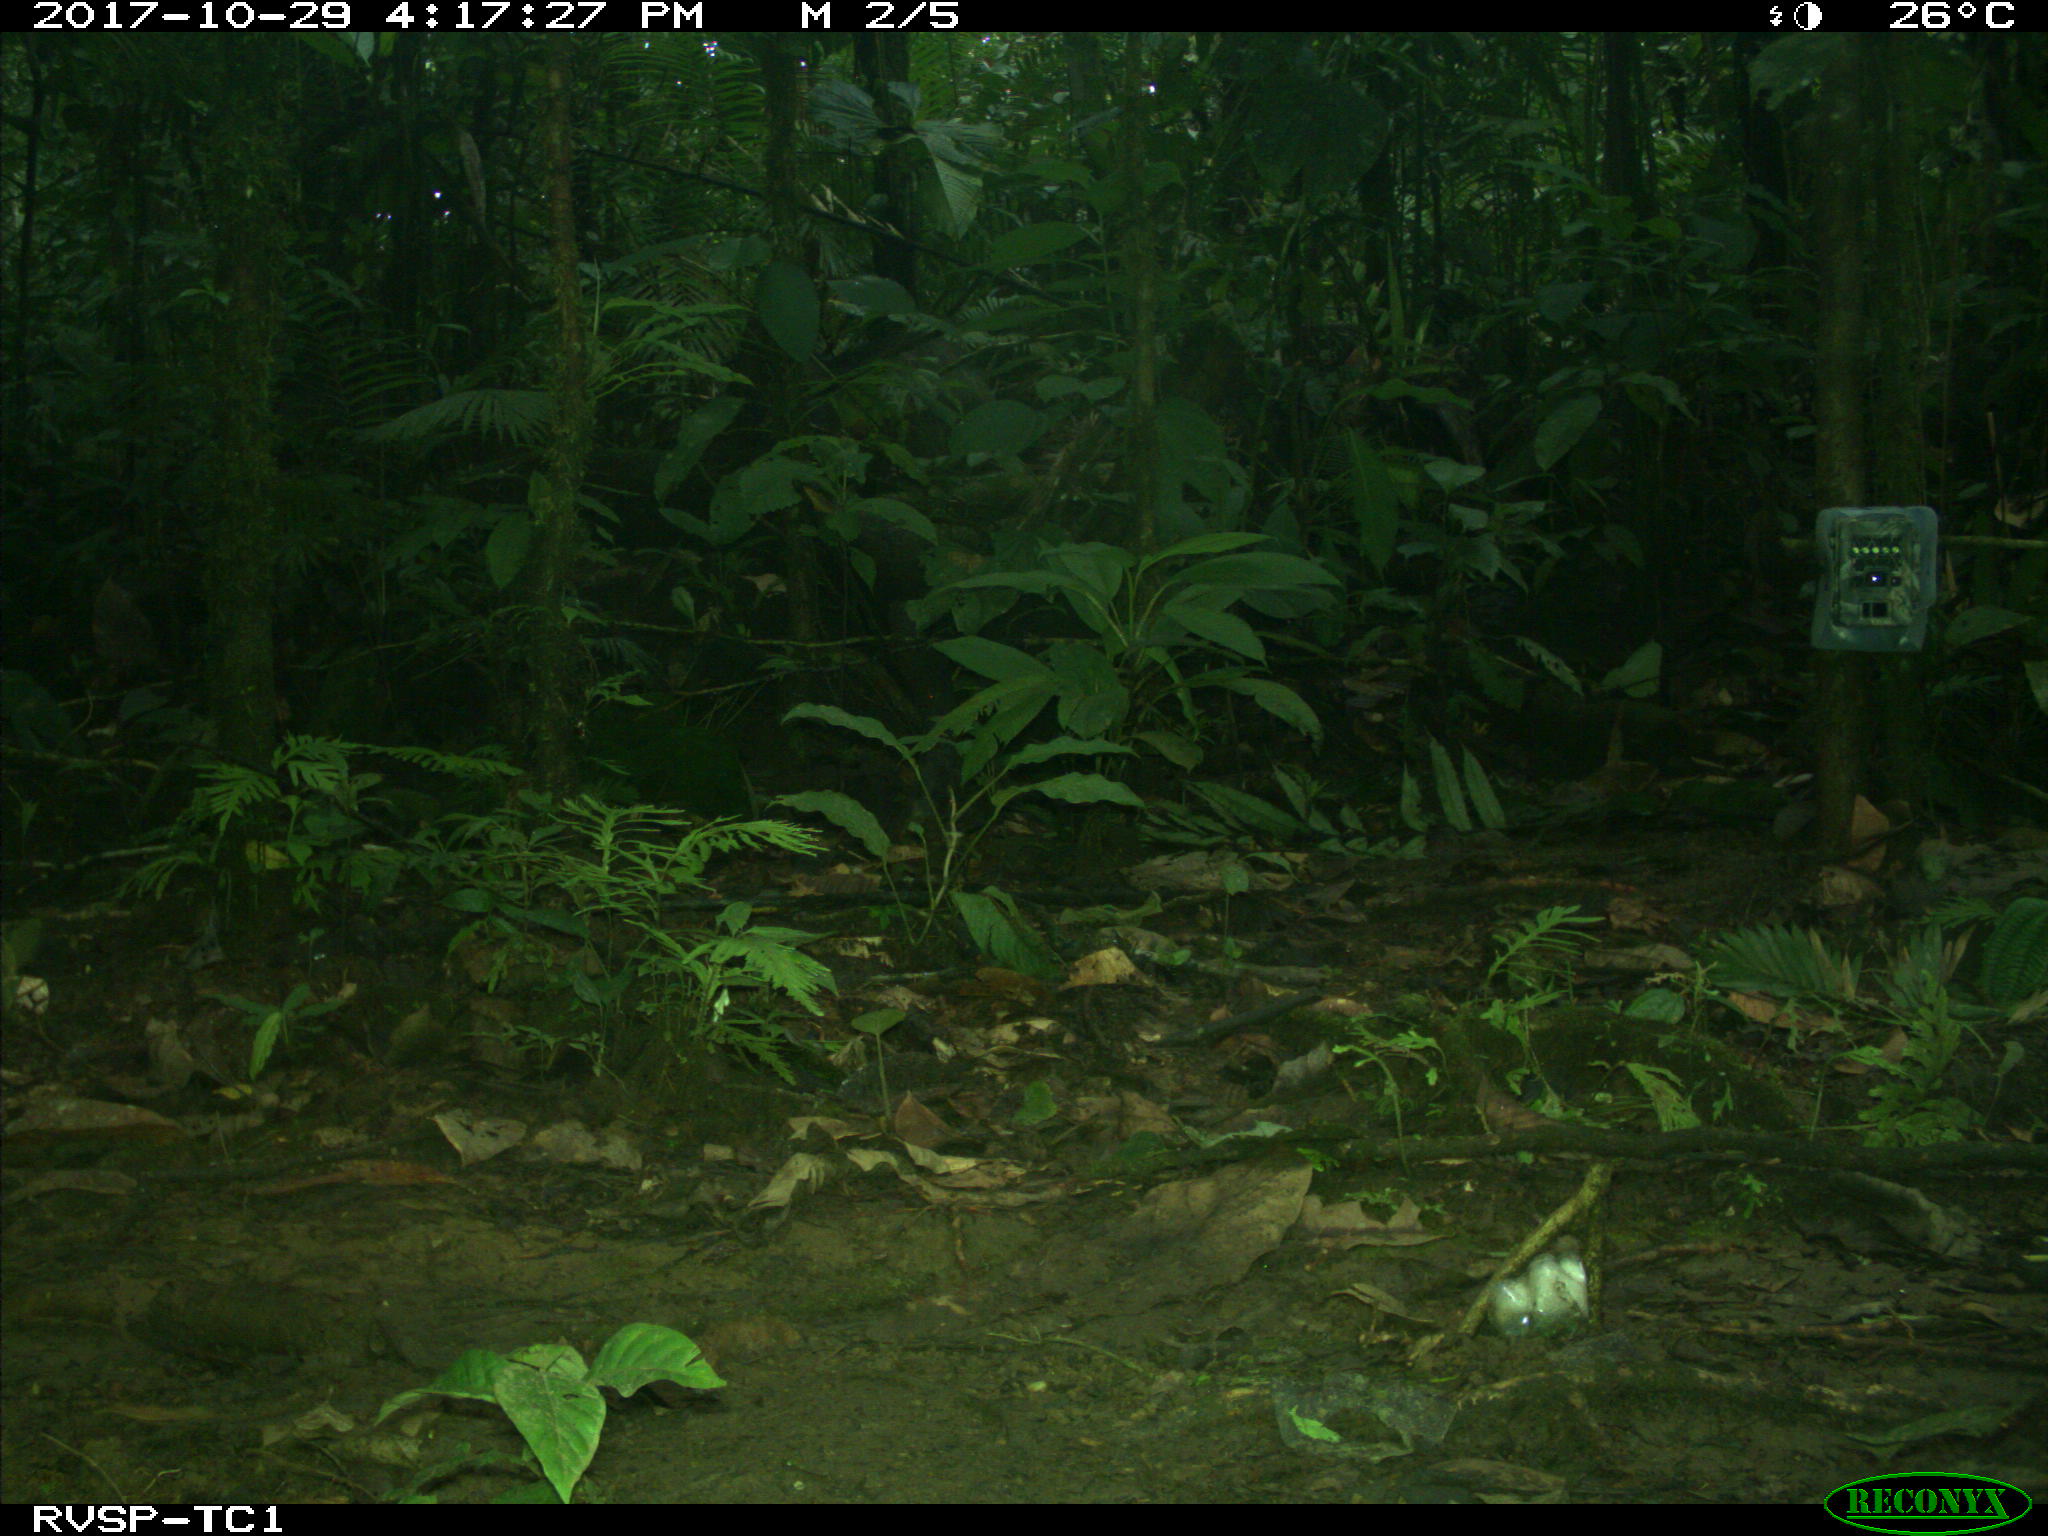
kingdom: Animalia
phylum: Chordata
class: Mammalia
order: Artiodactyla
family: Tayassuidae
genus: Tayassu
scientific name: Tayassu pecari
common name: White-lipped peccary
